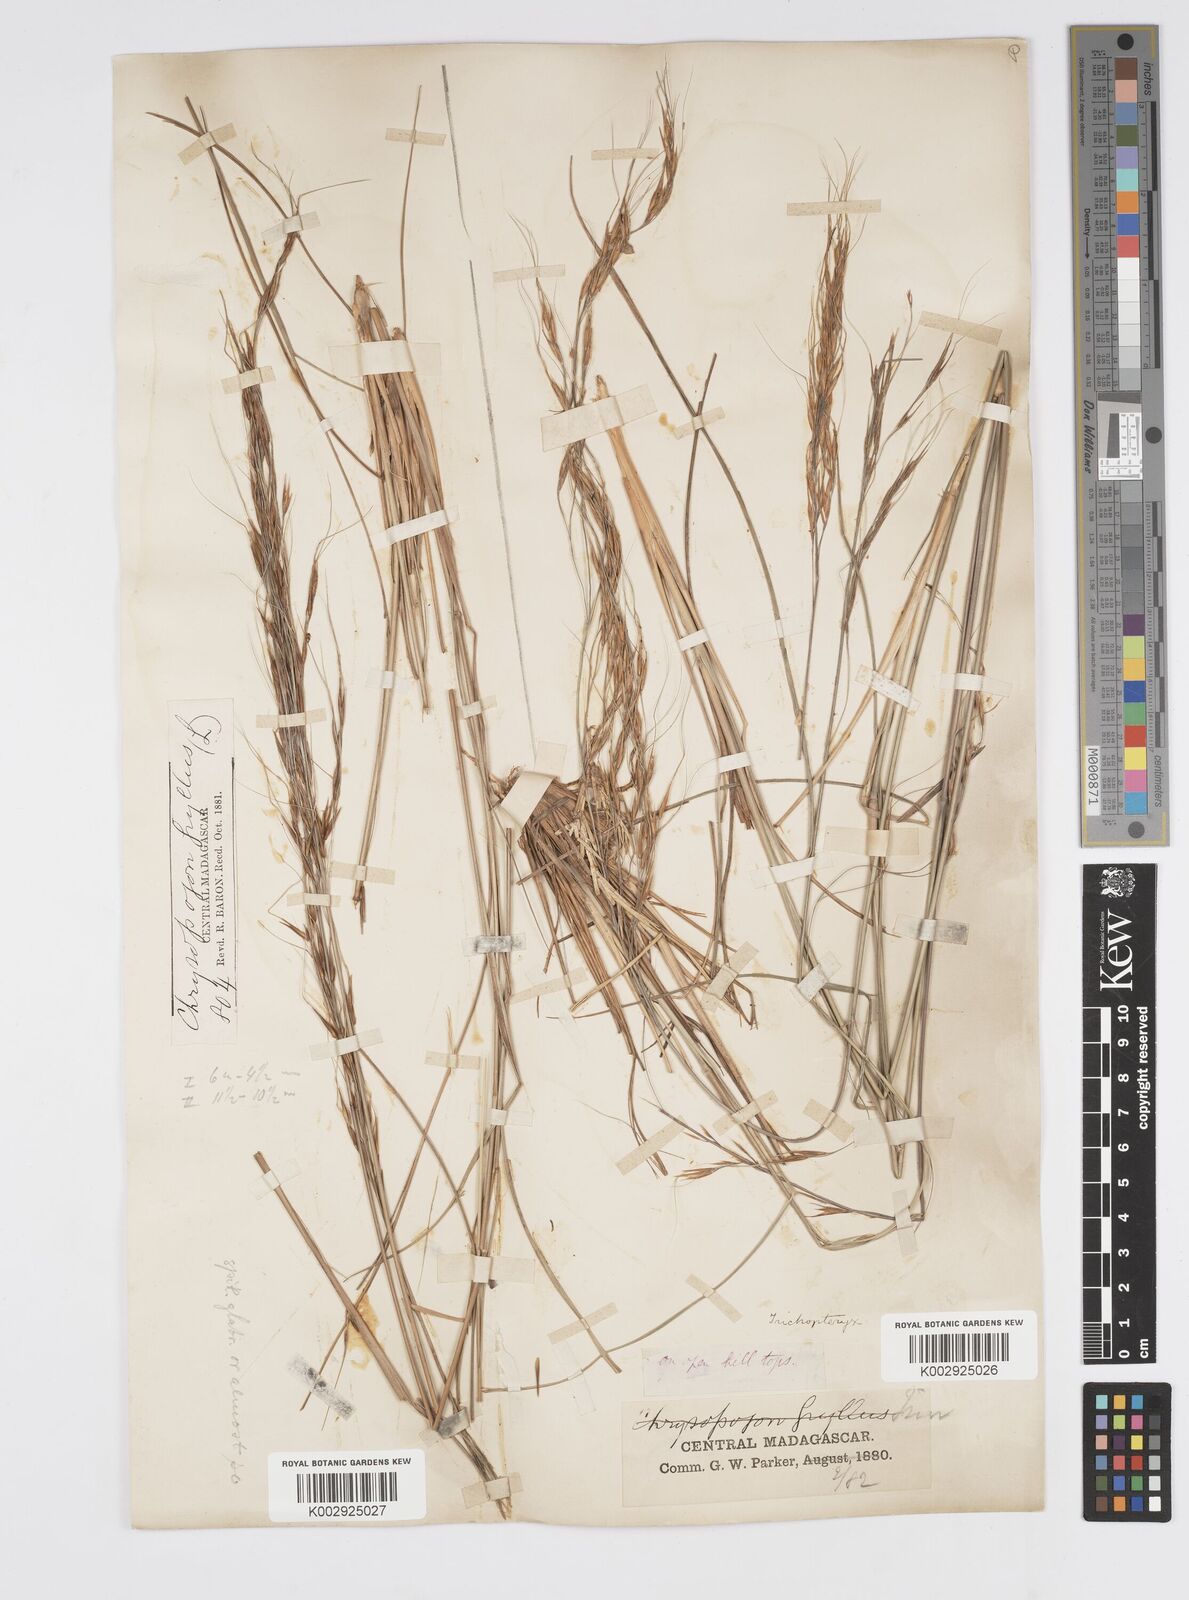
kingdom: Plantae
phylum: Tracheophyta
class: Liliopsida
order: Poales
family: Poaceae
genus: Loudetia
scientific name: Loudetia
